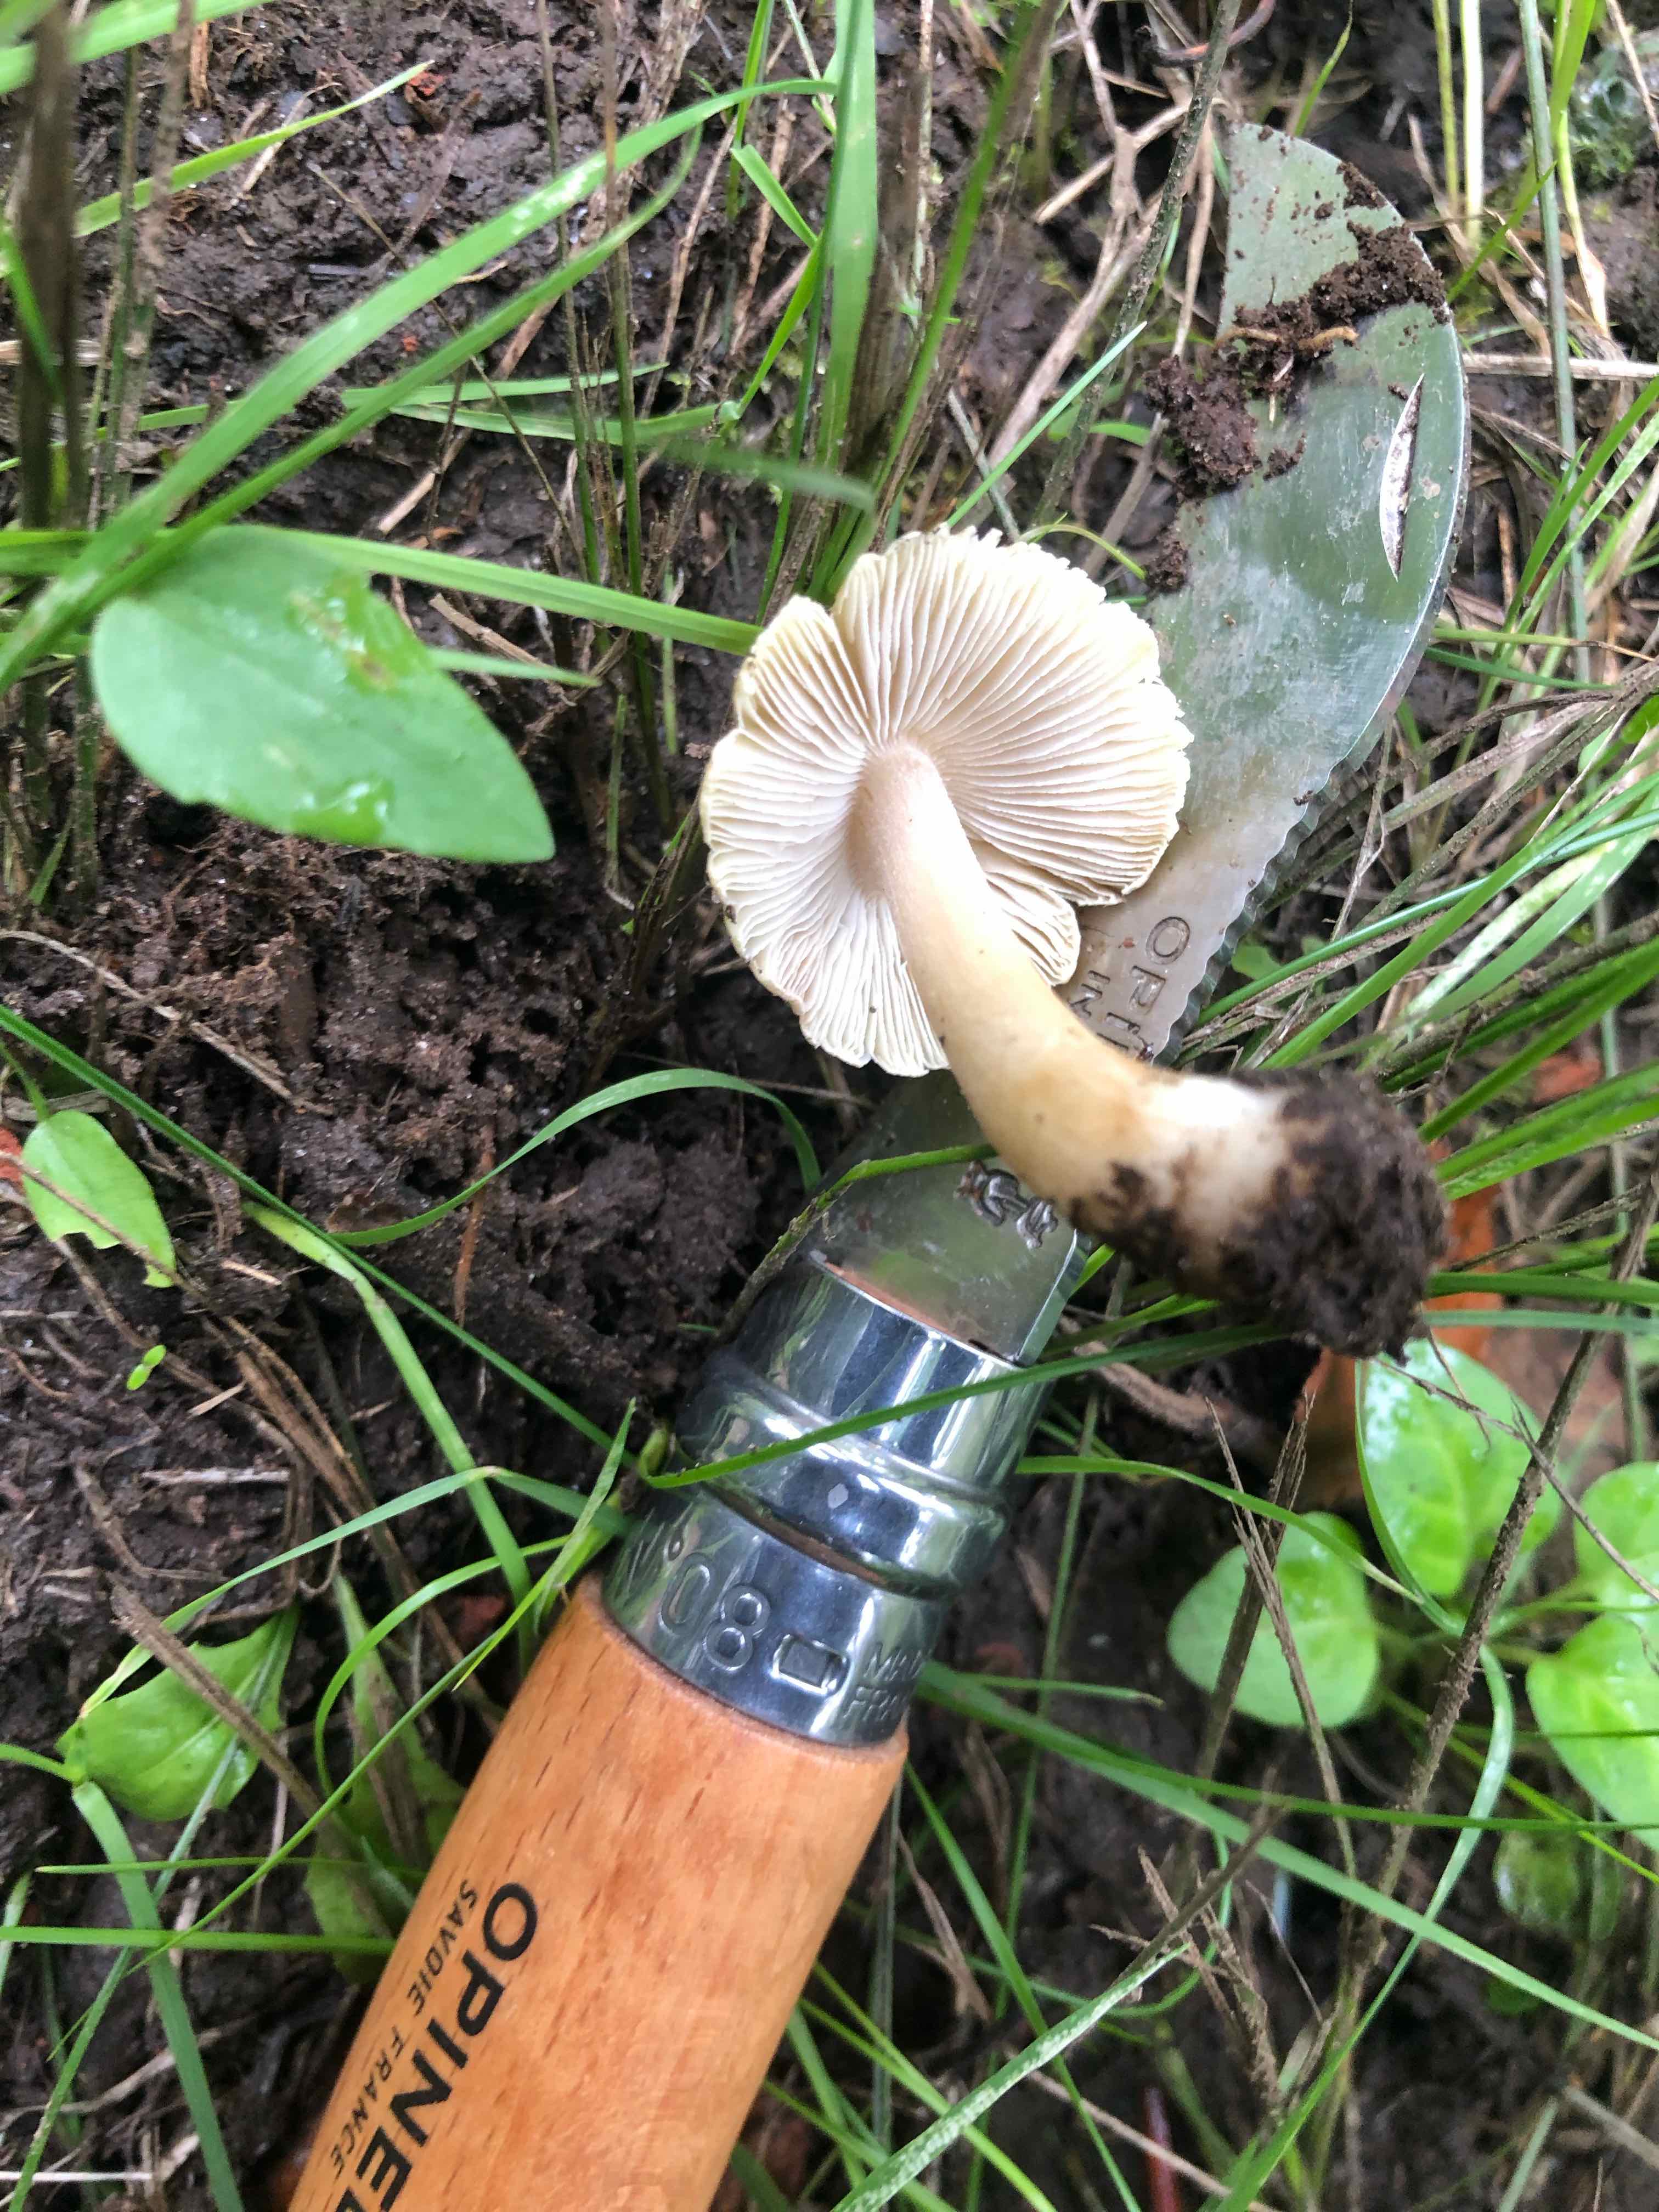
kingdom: Fungi
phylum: Basidiomycota
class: Agaricomycetes
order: Agaricales
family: Inocybaceae
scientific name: Inocybaceae
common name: trævlhatfamilien
